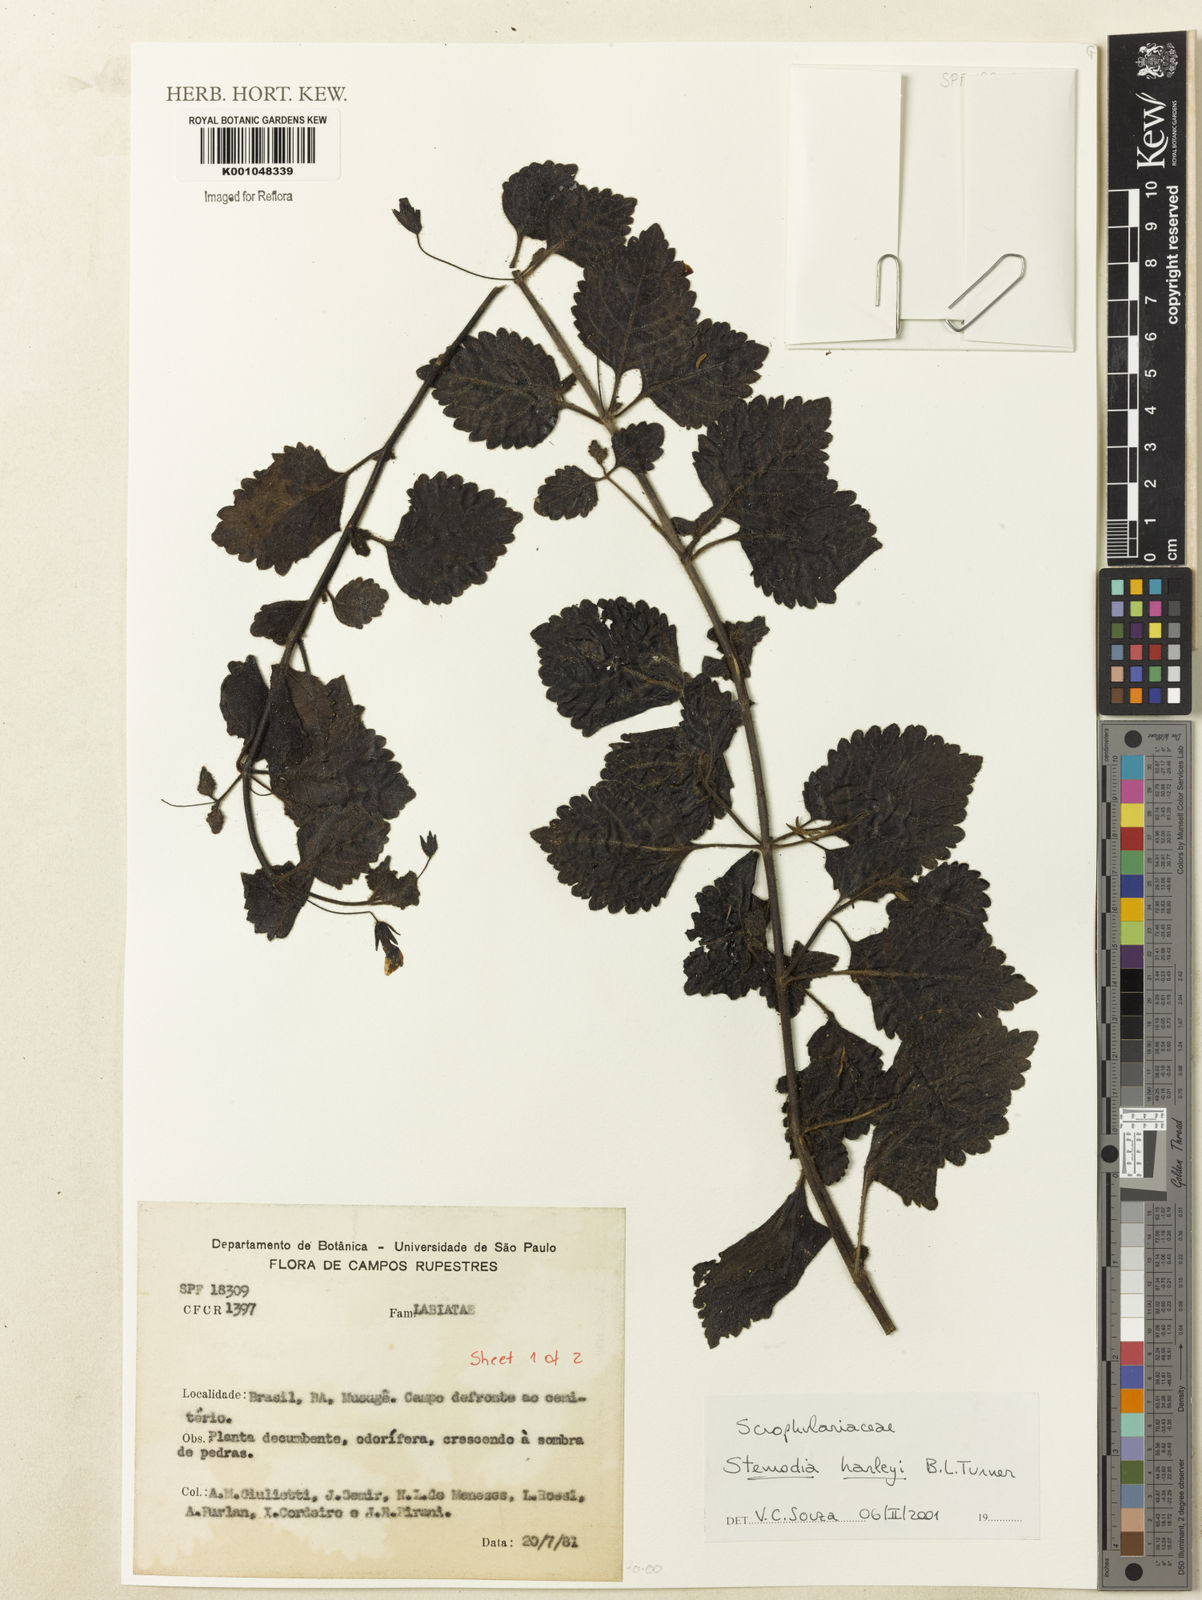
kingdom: Plantae
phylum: Tracheophyta
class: Magnoliopsida
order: Lamiales
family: Plantaginaceae
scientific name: Plantaginaceae
